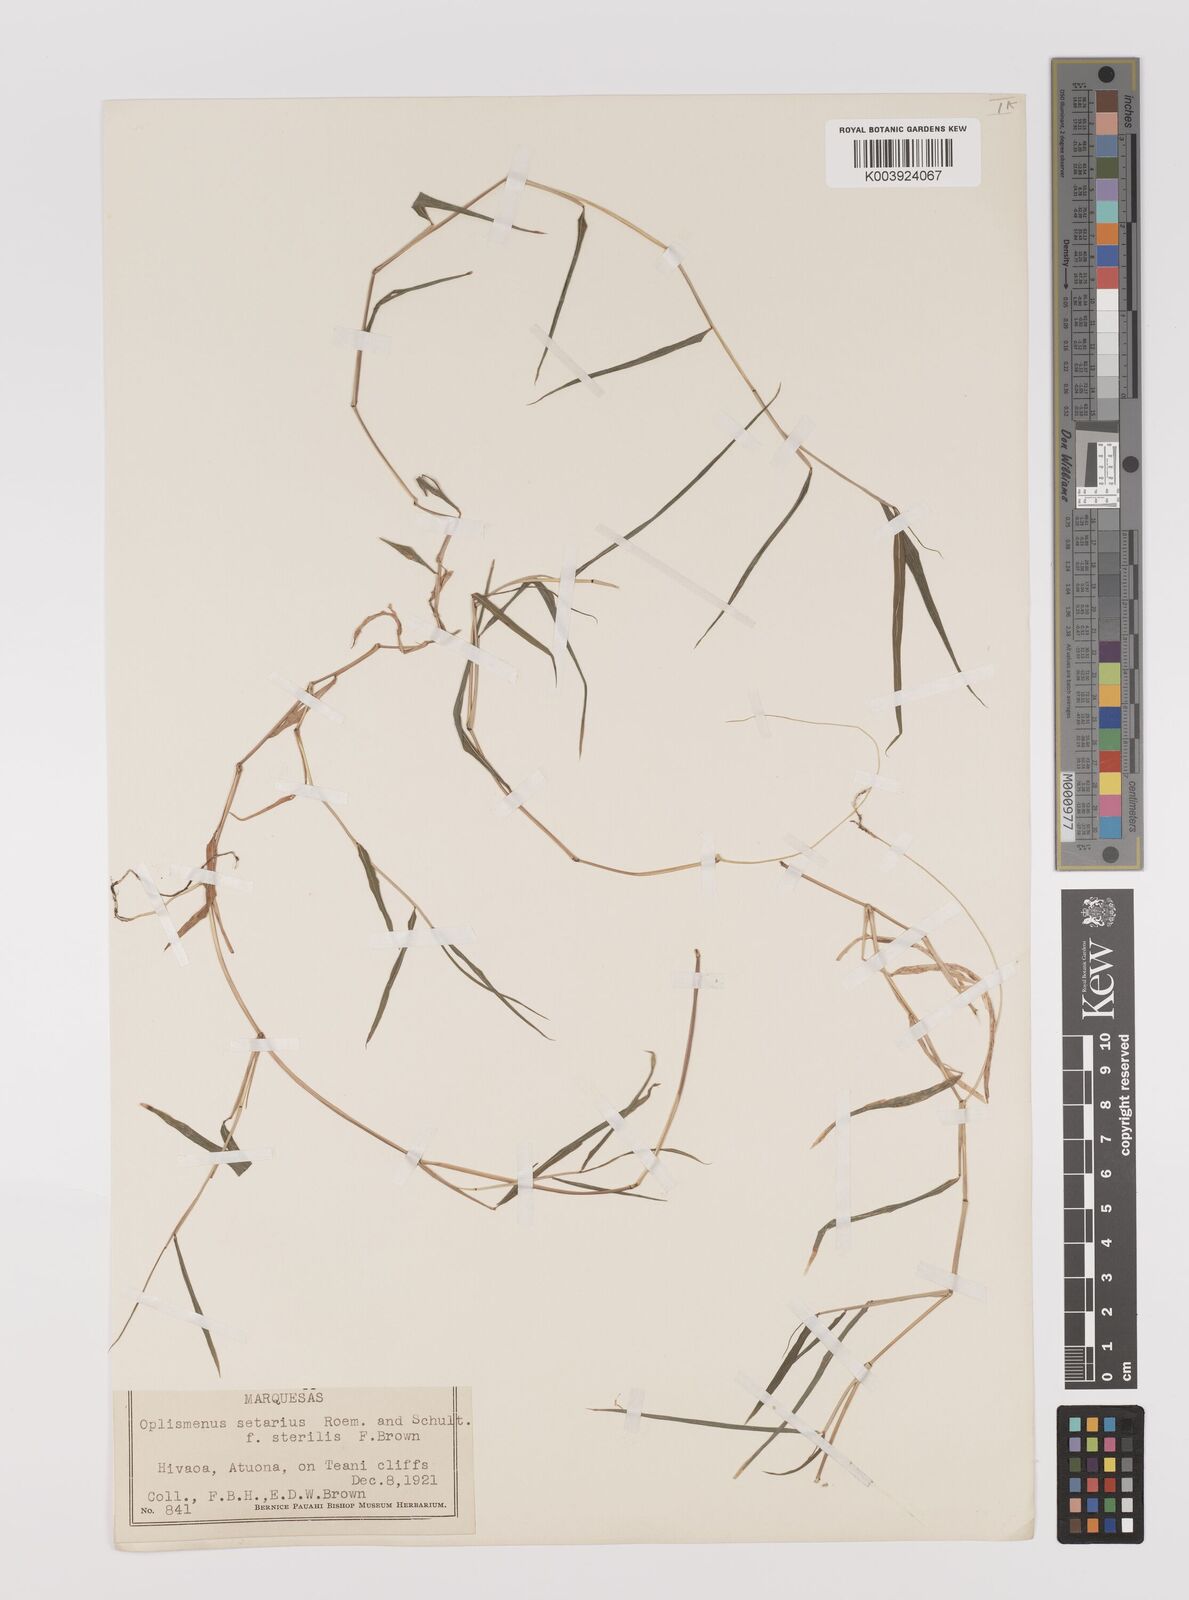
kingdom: Plantae
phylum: Tracheophyta
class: Liliopsida
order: Poales
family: Poaceae
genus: Oplismenus
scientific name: Oplismenus hirtellus
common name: Basketgrass
